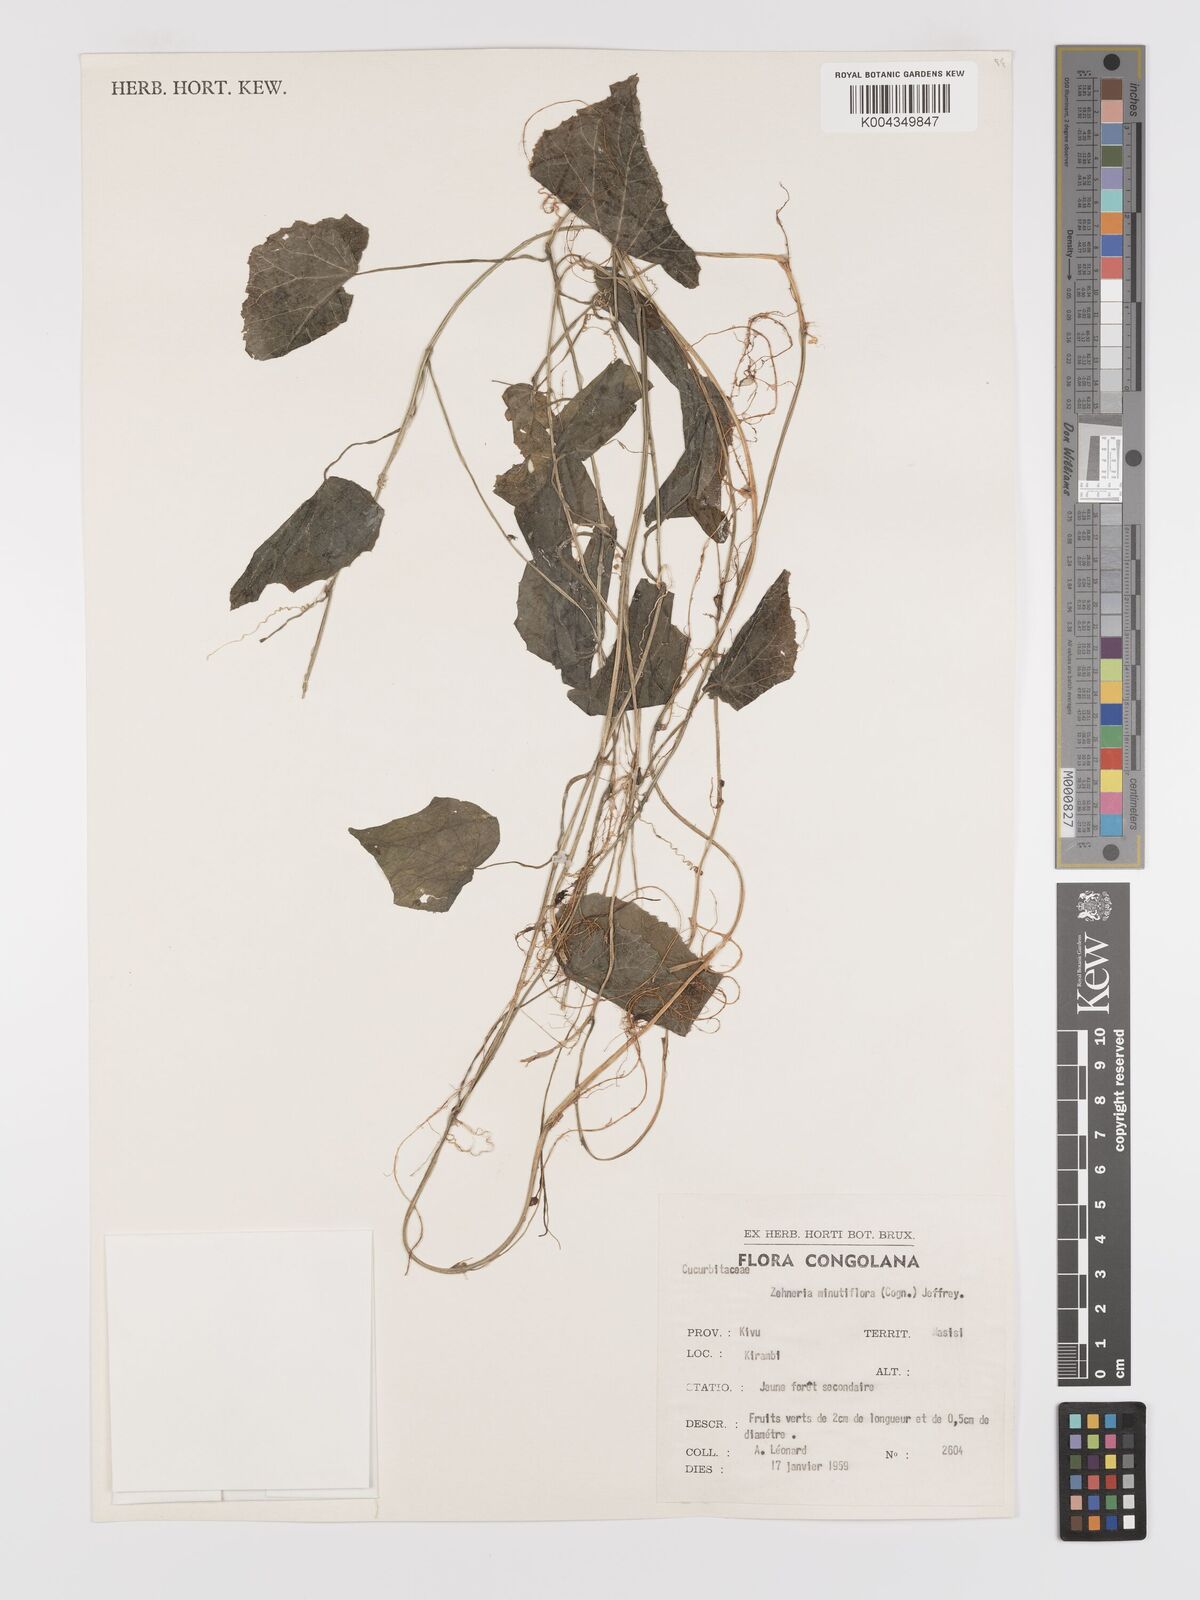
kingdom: Plantae
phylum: Tracheophyta
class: Magnoliopsida
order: Cucurbitales
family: Cucurbitaceae
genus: Zehneria
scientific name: Zehneria minutiflora
